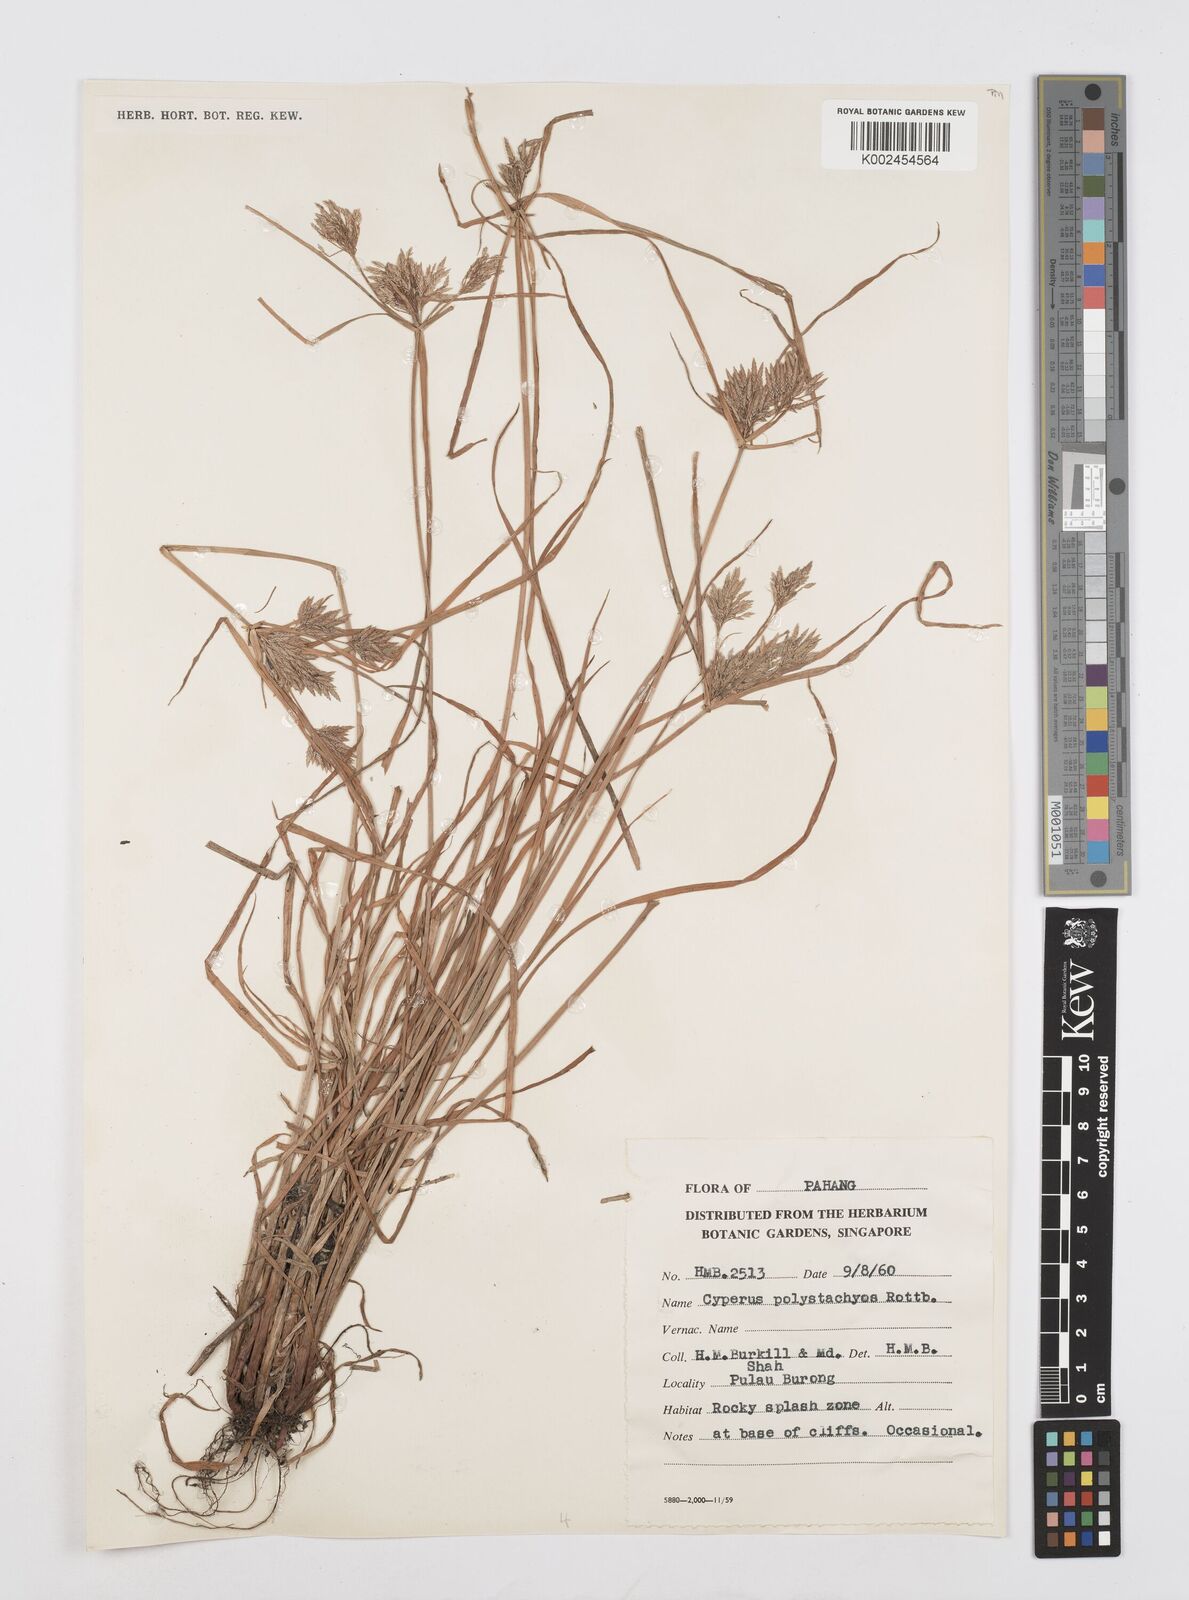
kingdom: Plantae
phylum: Tracheophyta
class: Liliopsida
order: Poales
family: Cyperaceae
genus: Cyperus
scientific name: Cyperus polystachyos
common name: Bunchy flat sedge
